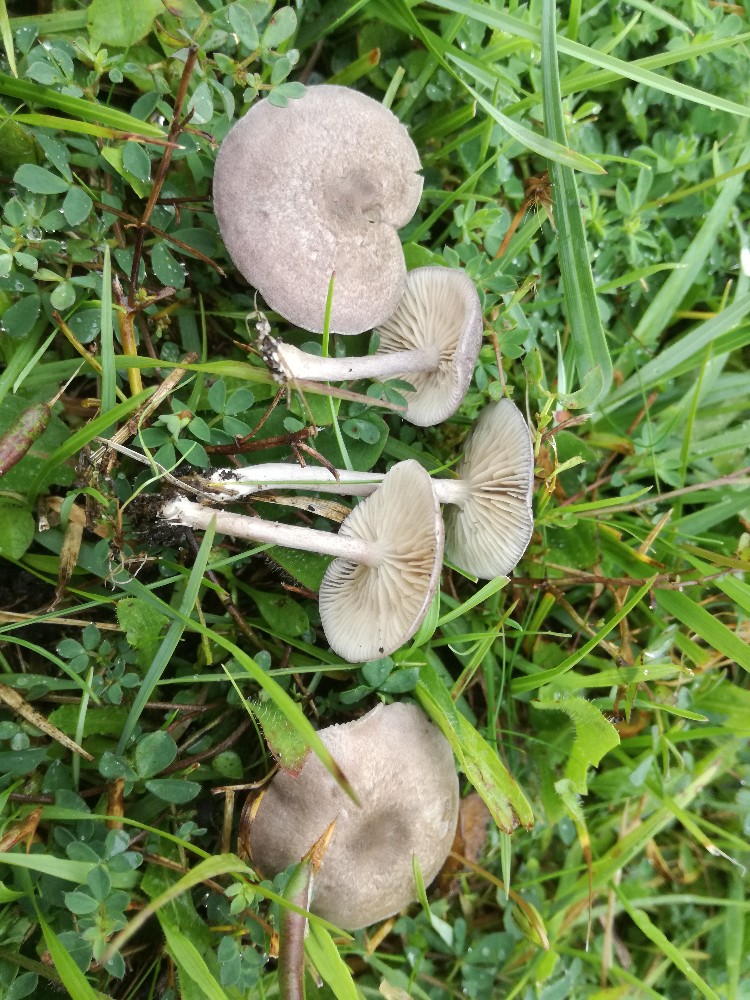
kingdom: Fungi
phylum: Basidiomycota
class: Agaricomycetes
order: Agaricales
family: Entolomataceae
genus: Entoloma
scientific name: Entoloma mougeotii
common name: violetgrå rødblad
